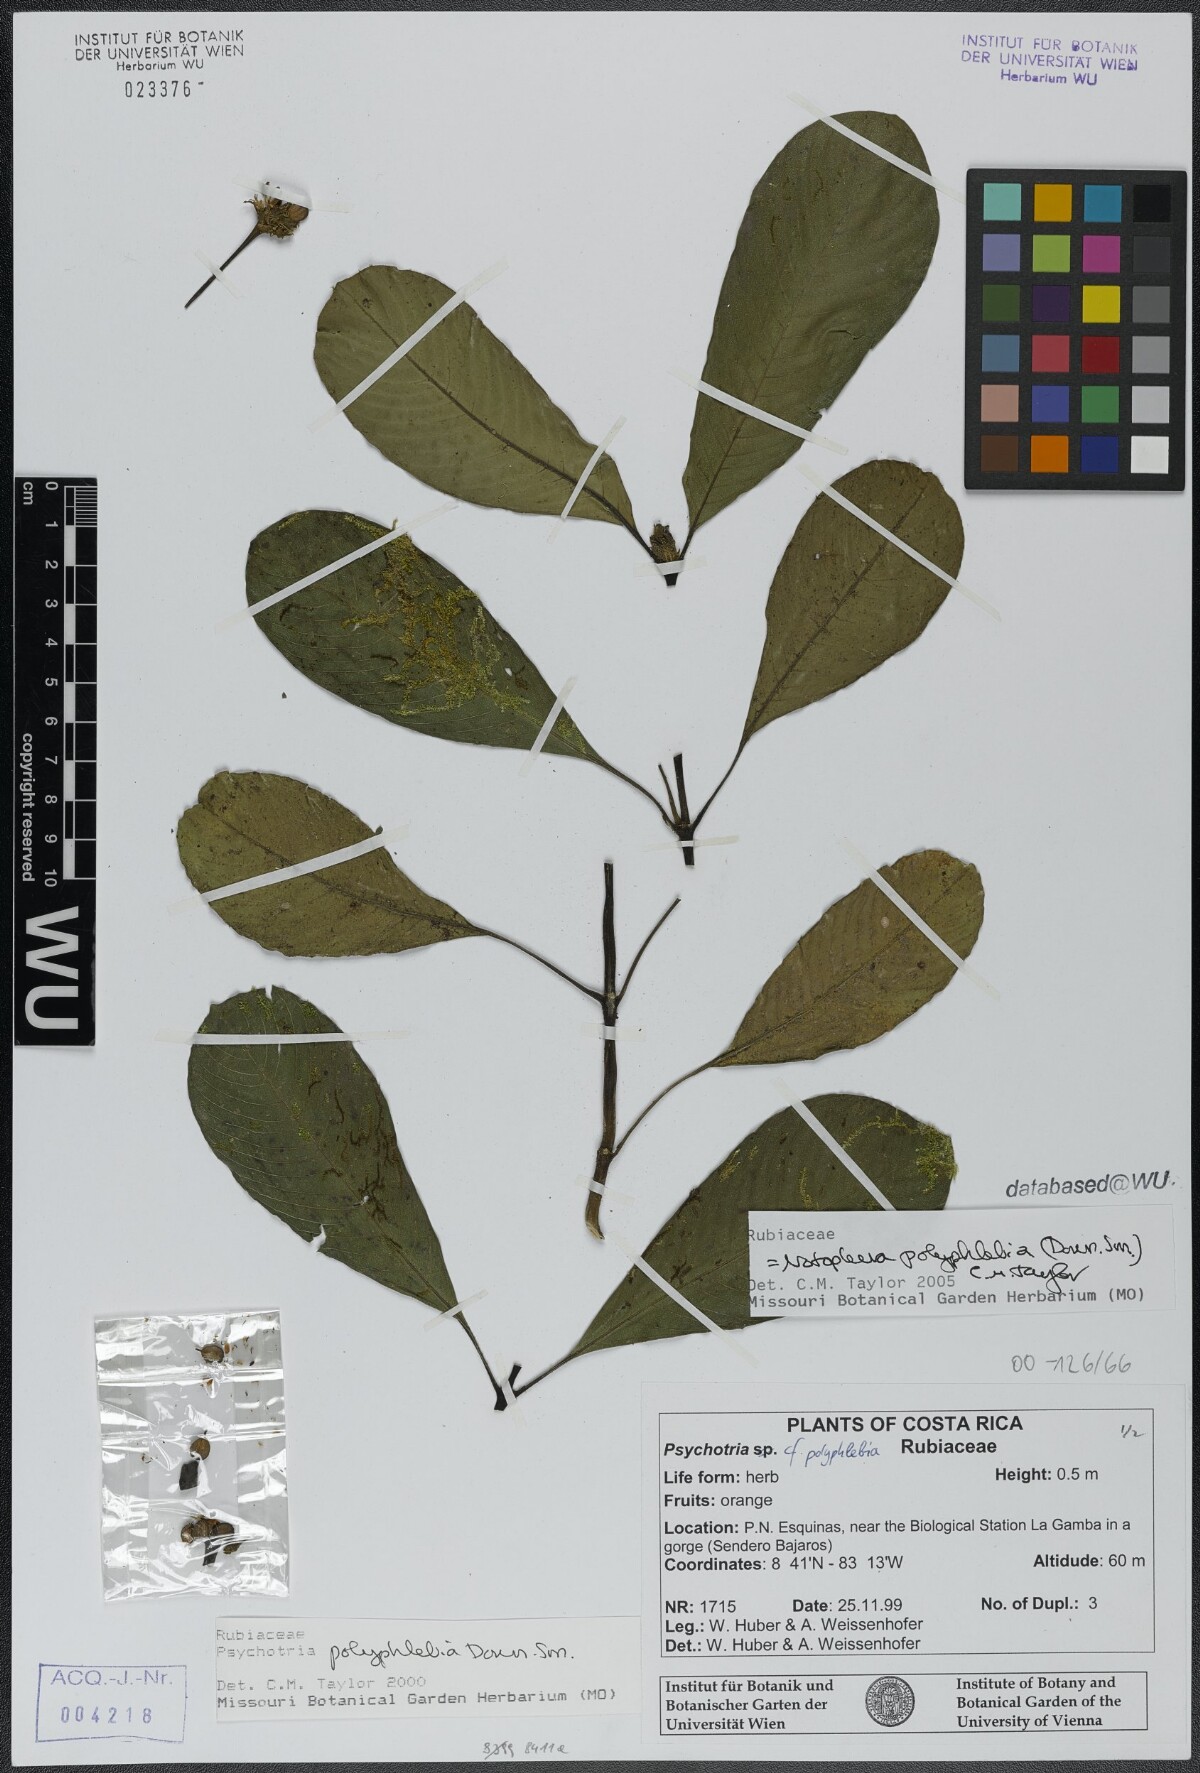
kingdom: Plantae
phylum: Tracheophyta
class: Magnoliopsida
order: Gentianales
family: Rubiaceae
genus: Notopleura
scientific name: Notopleura polyphlebia
